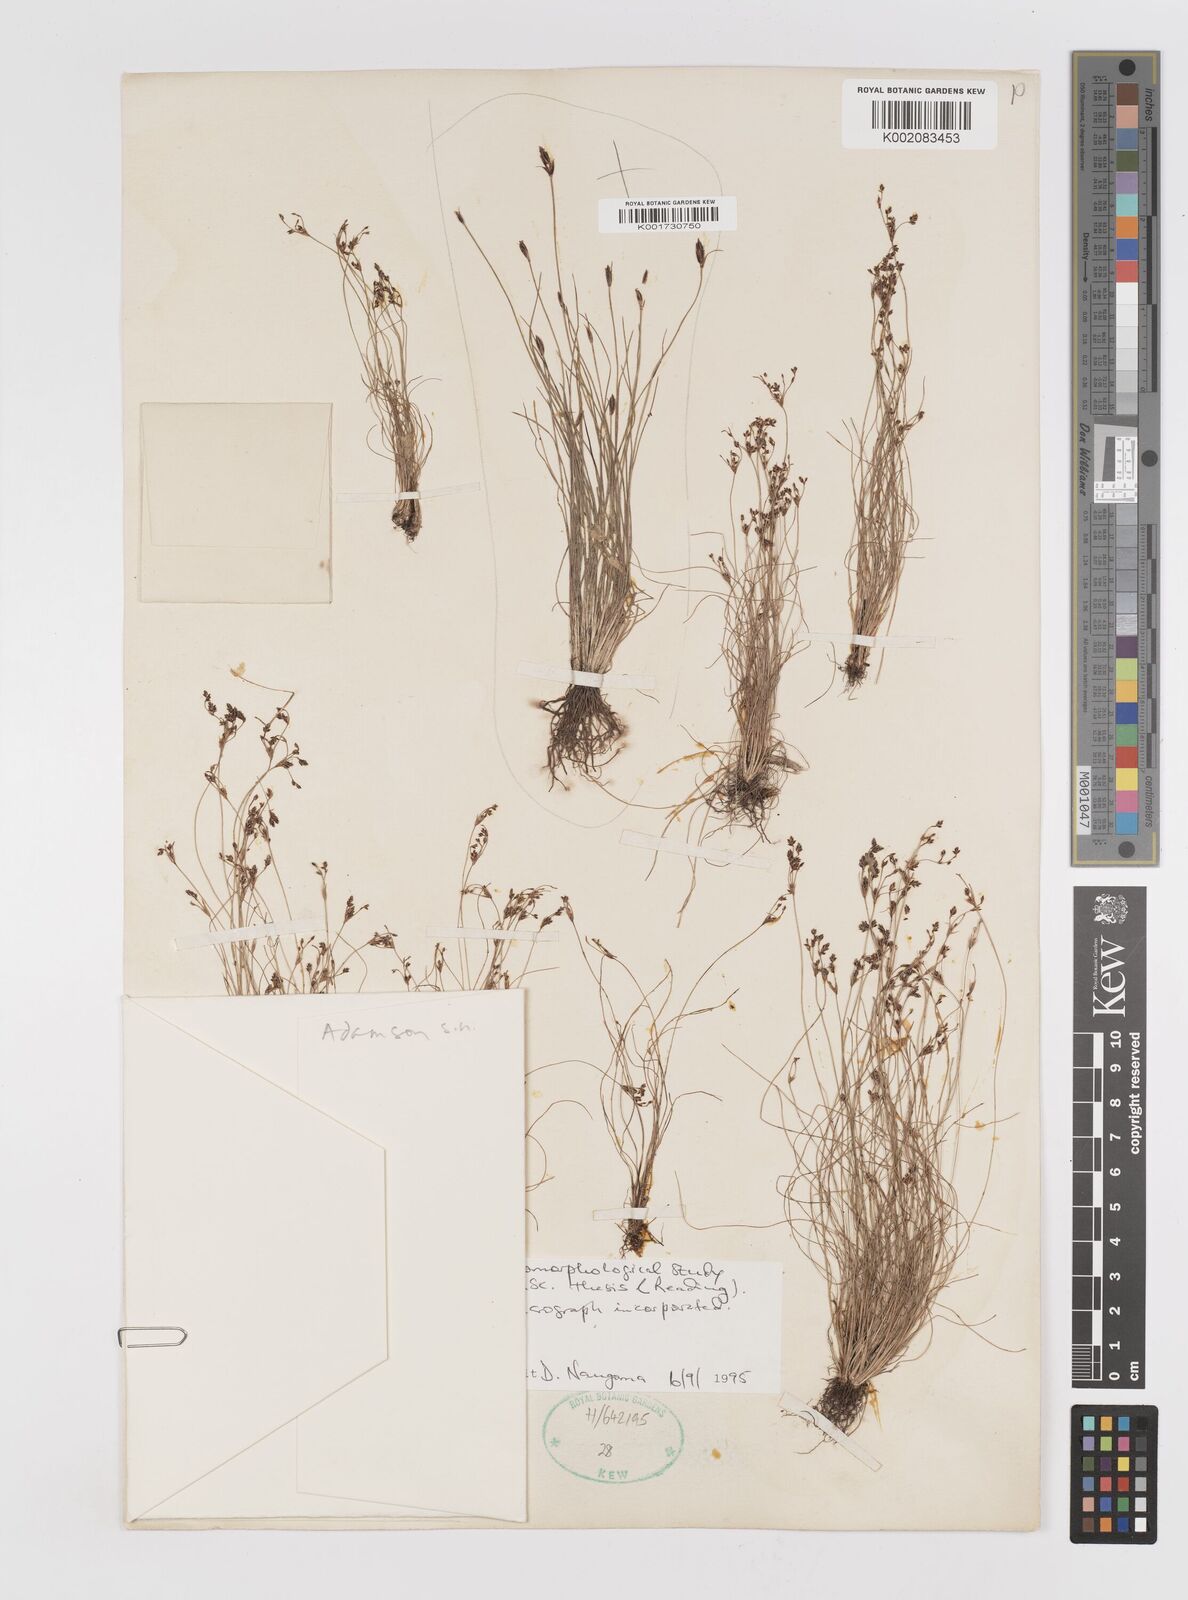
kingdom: Plantae
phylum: Tracheophyta
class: Liliopsida
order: Poales
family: Cyperaceae
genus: Bulbostylis
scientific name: Bulbostylis capillaris
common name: Densetuft hairsedge
